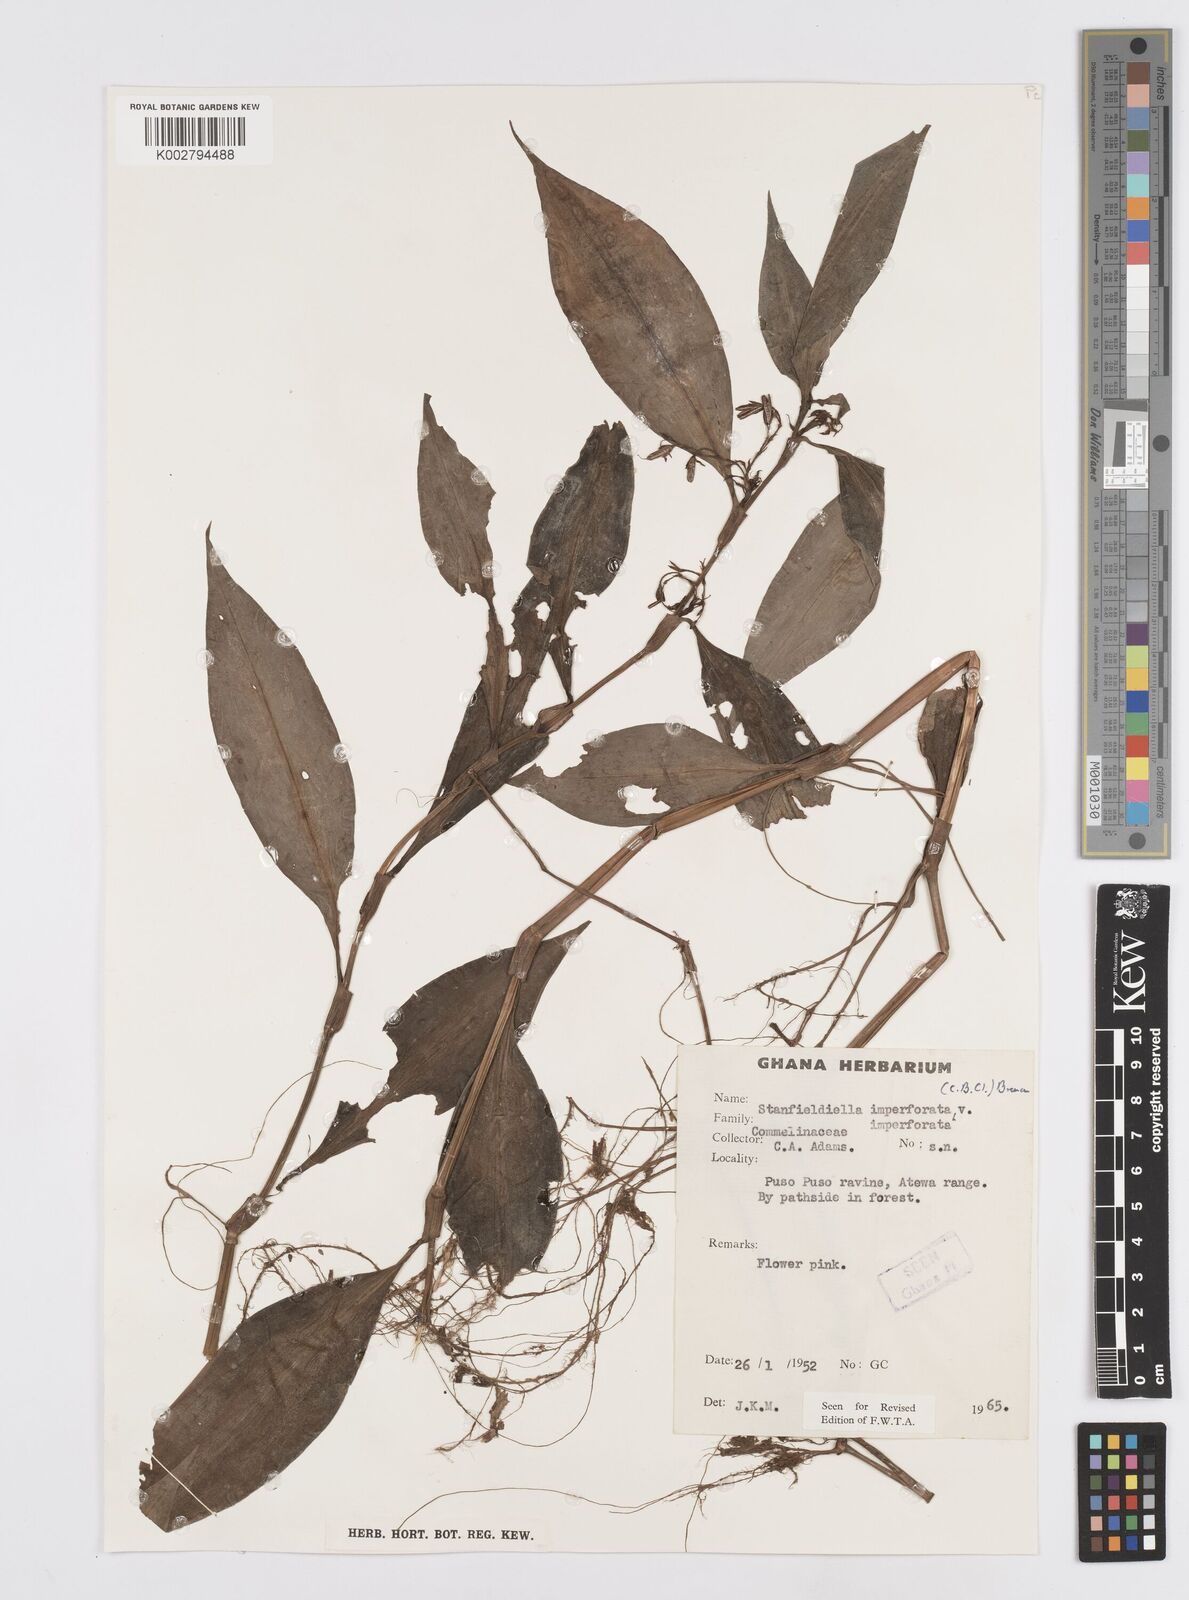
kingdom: Plantae
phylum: Tracheophyta
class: Liliopsida
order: Commelinales
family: Commelinaceae
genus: Stanfieldiella
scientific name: Stanfieldiella imperforata
